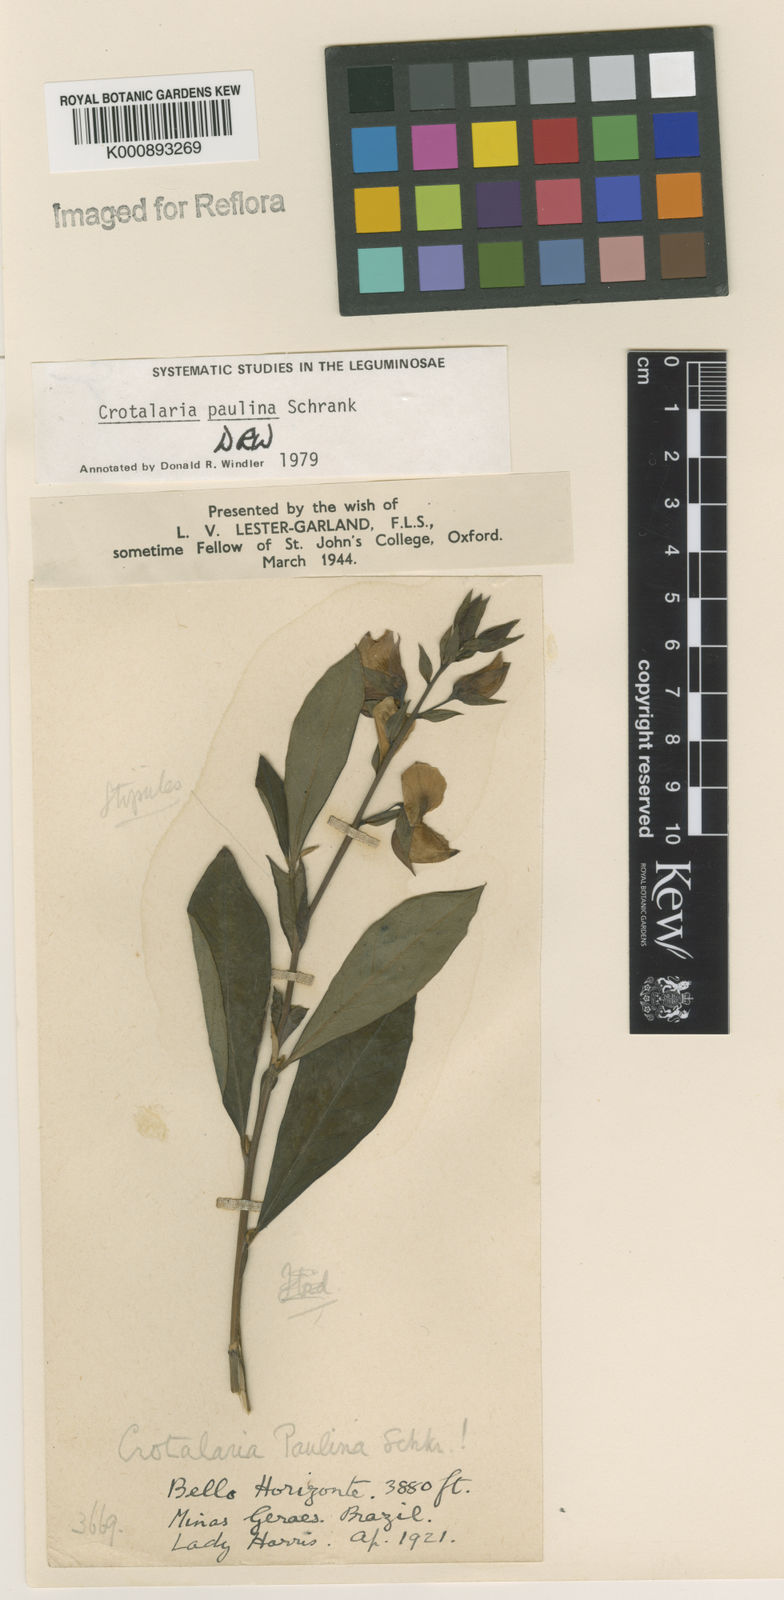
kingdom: Plantae
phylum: Tracheophyta
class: Magnoliopsida
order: Fabales
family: Fabaceae
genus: Crotalaria
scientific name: Crotalaria paulina
